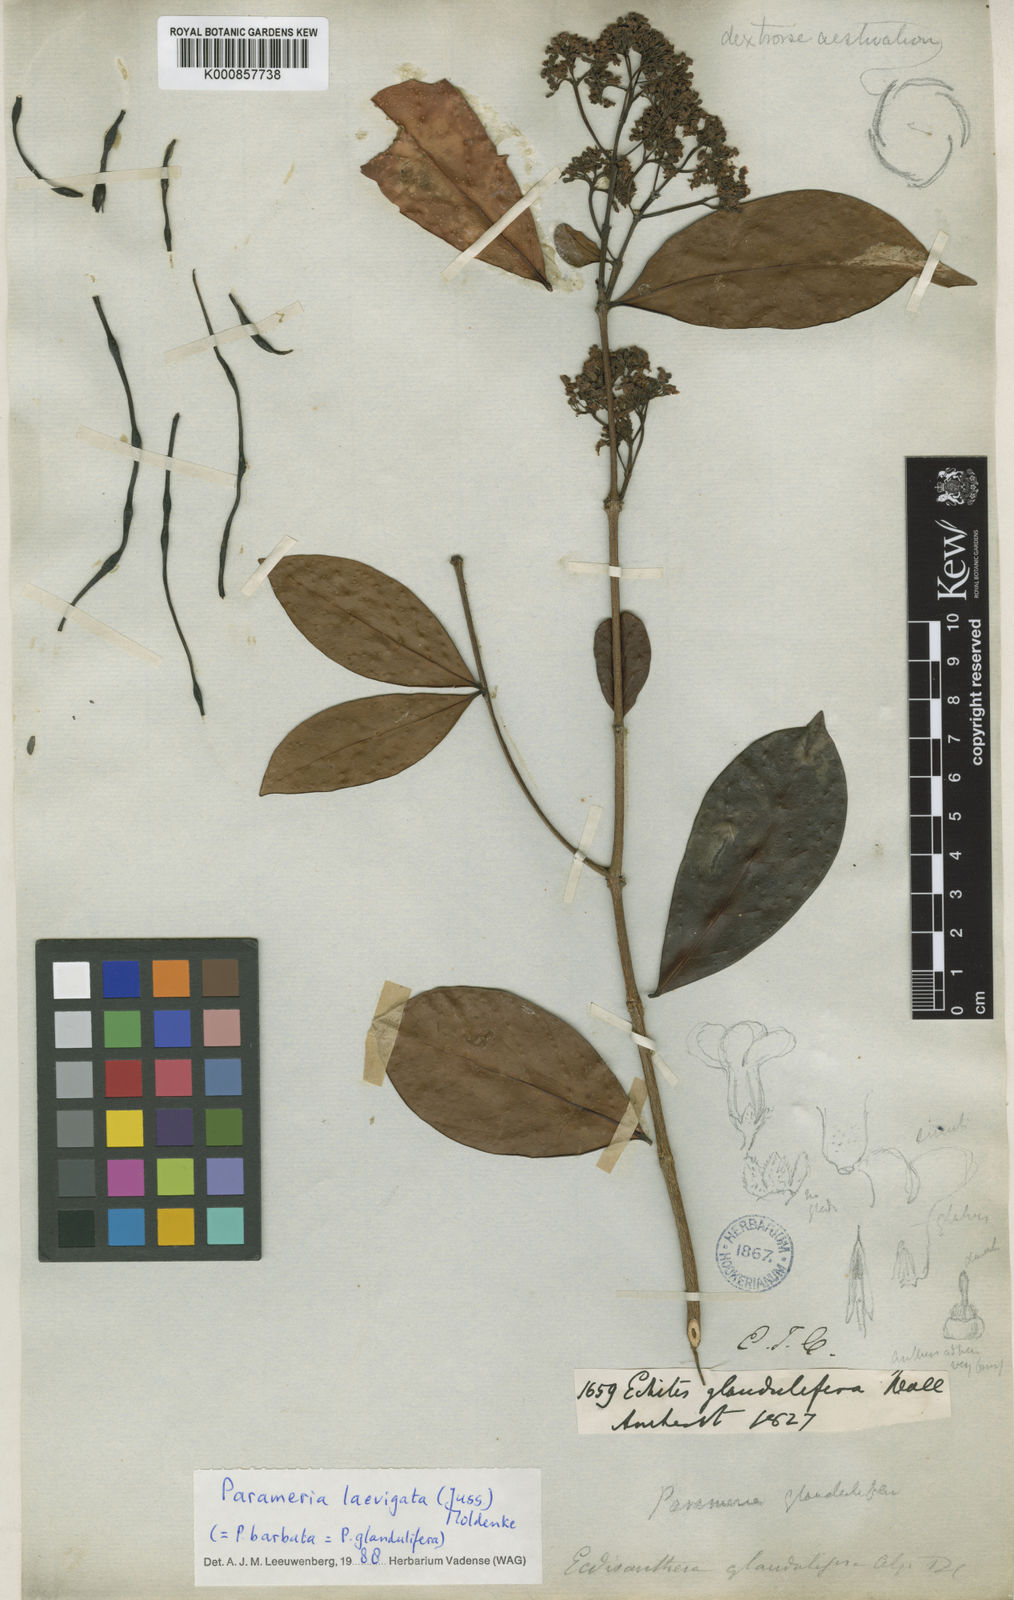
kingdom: Plantae
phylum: Tracheophyta
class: Magnoliopsida
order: Gentianales
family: Apocynaceae
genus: Urceola
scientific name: Urceola laevigata
